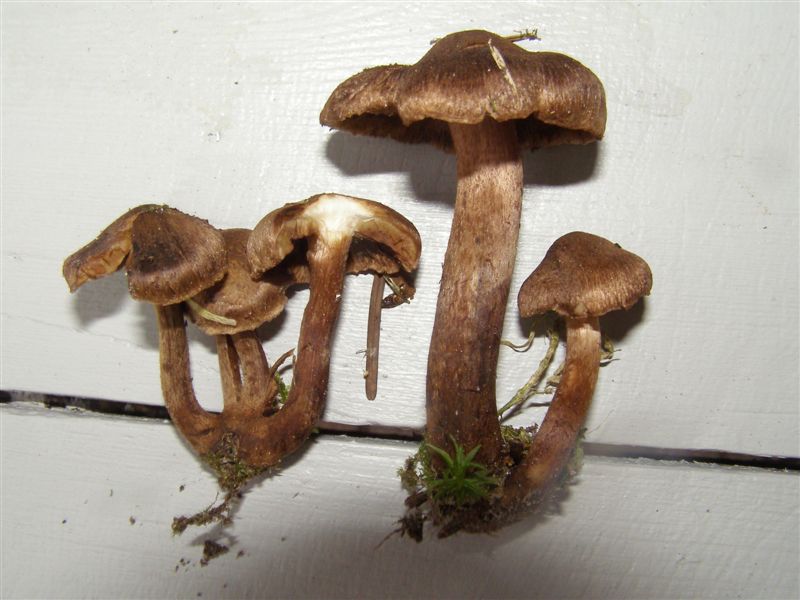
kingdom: Fungi
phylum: Basidiomycota
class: Agaricomycetes
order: Agaricales
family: Inocybaceae
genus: Inocybe
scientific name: Inocybe subcarpta
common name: plantage-trævlhat
